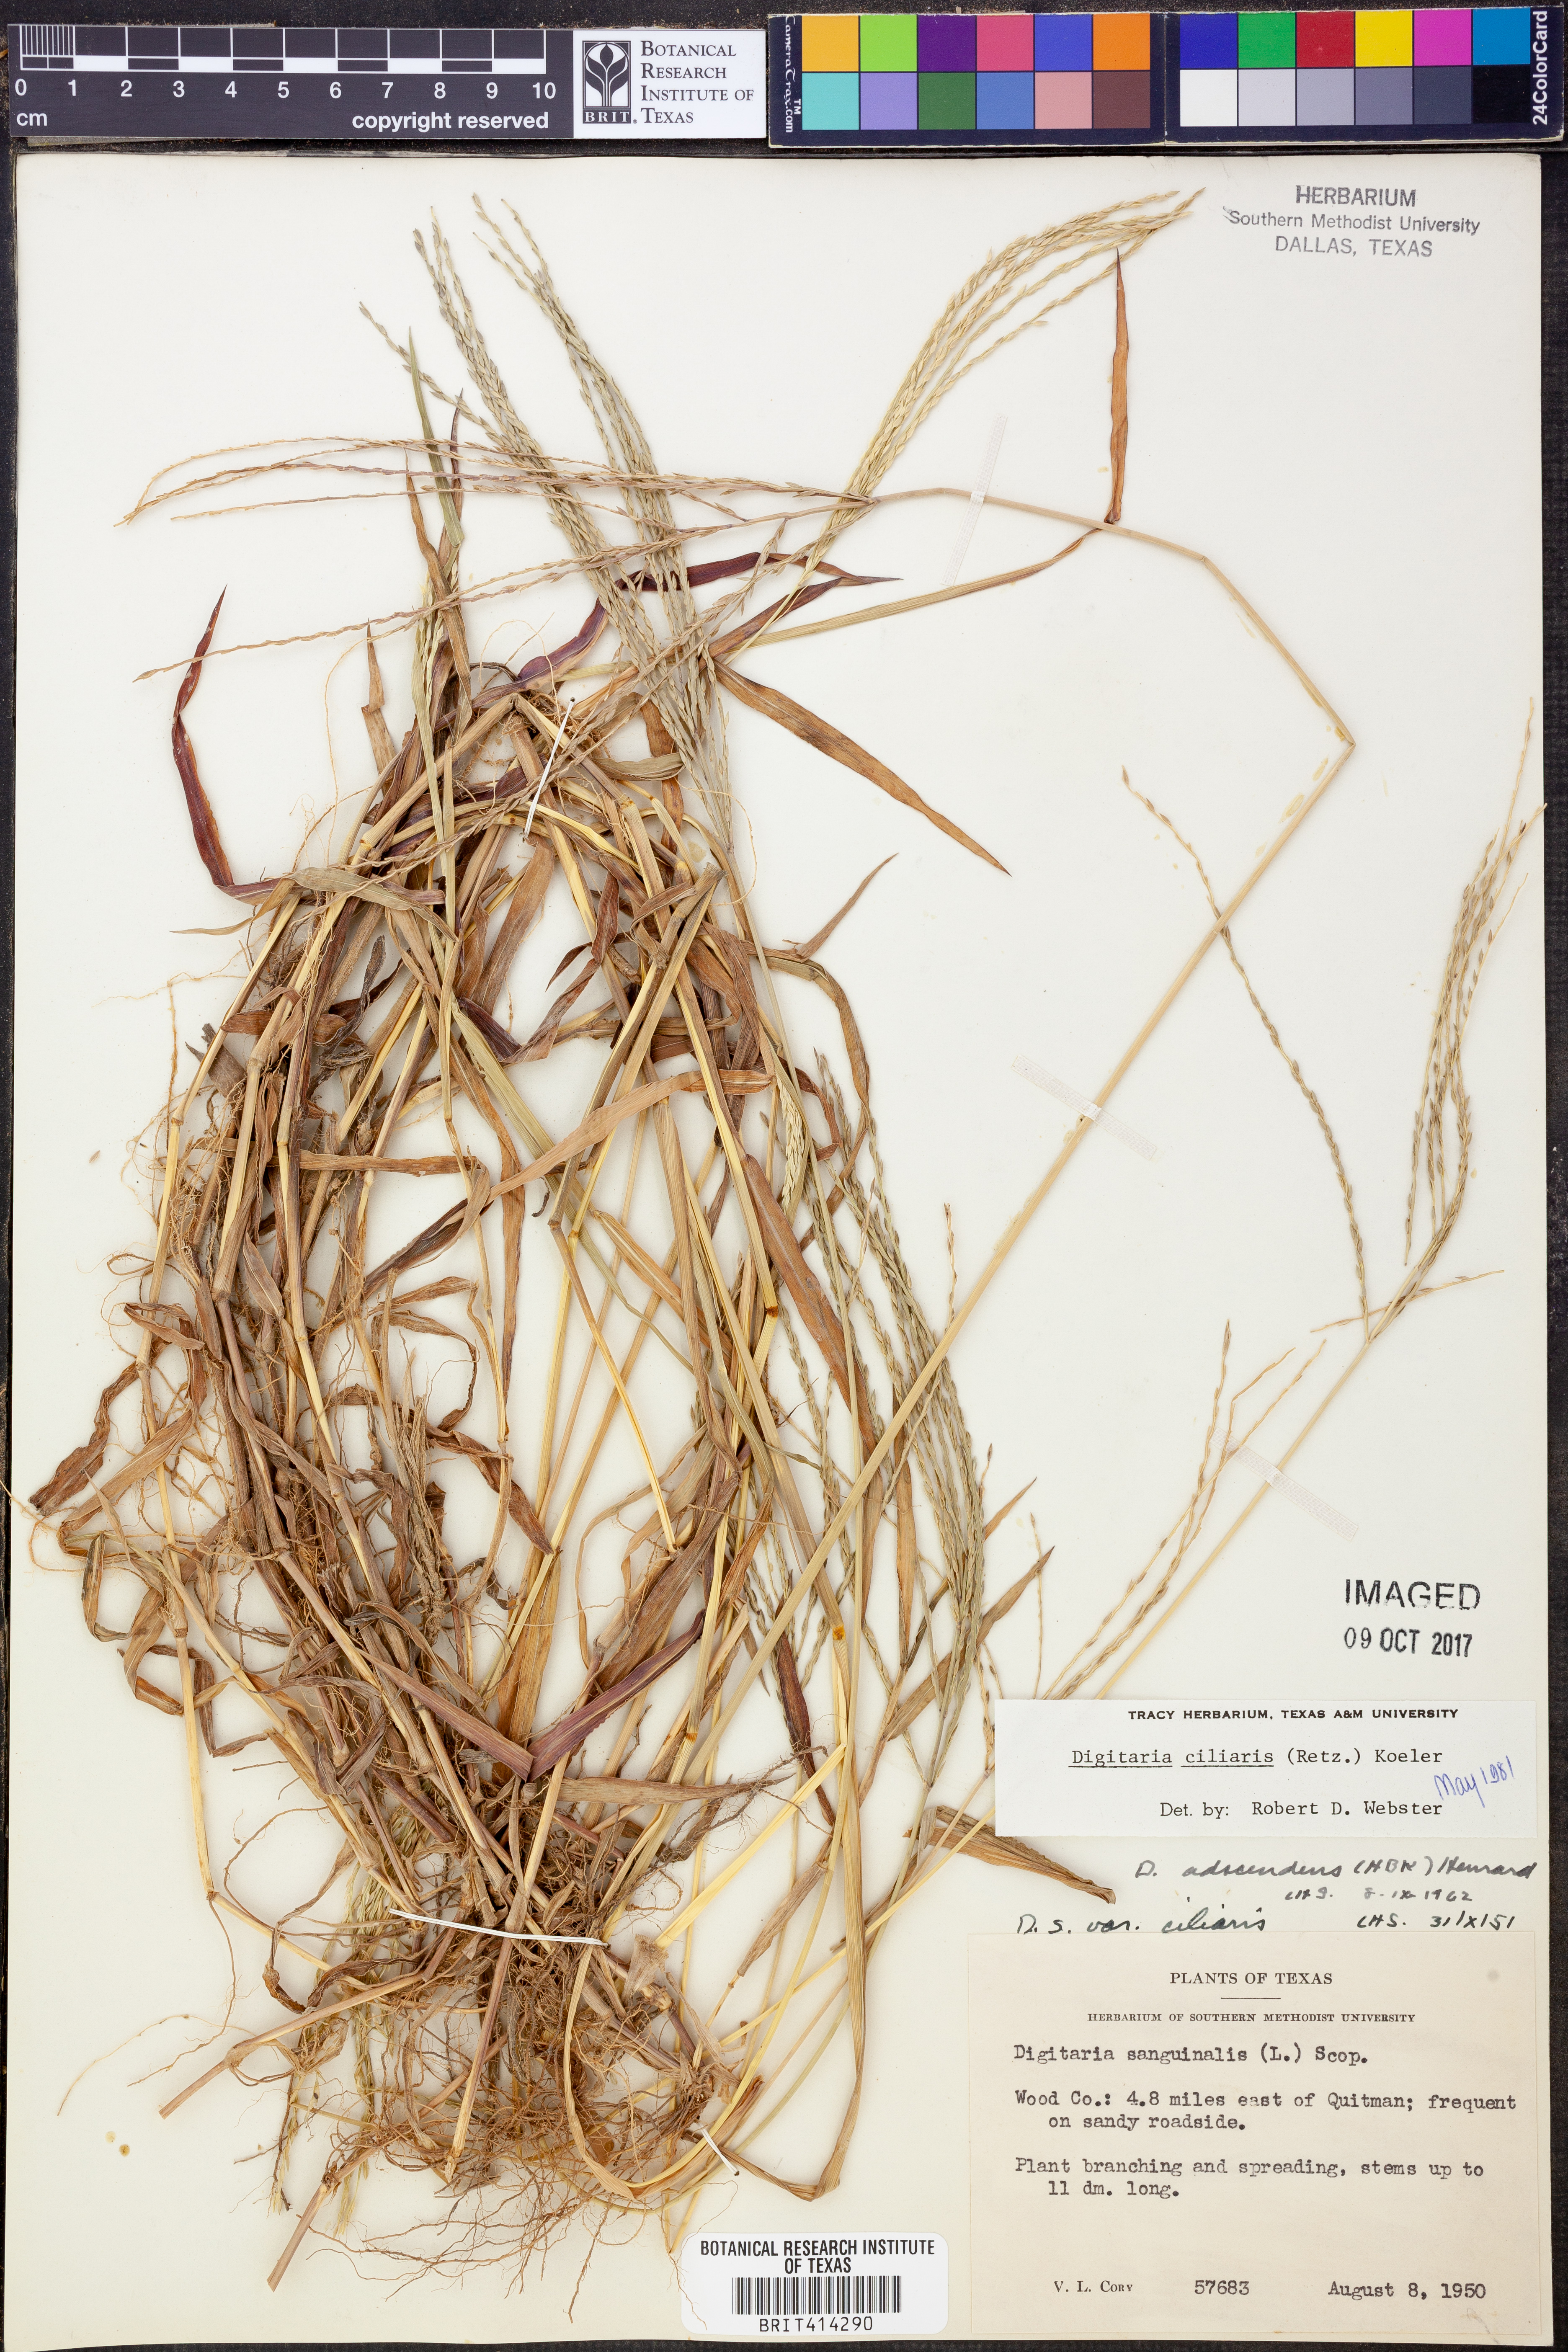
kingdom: Plantae
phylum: Tracheophyta
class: Liliopsida
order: Poales
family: Poaceae
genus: Digitaria
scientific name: Digitaria ciliaris
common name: Tropical finger-grass
